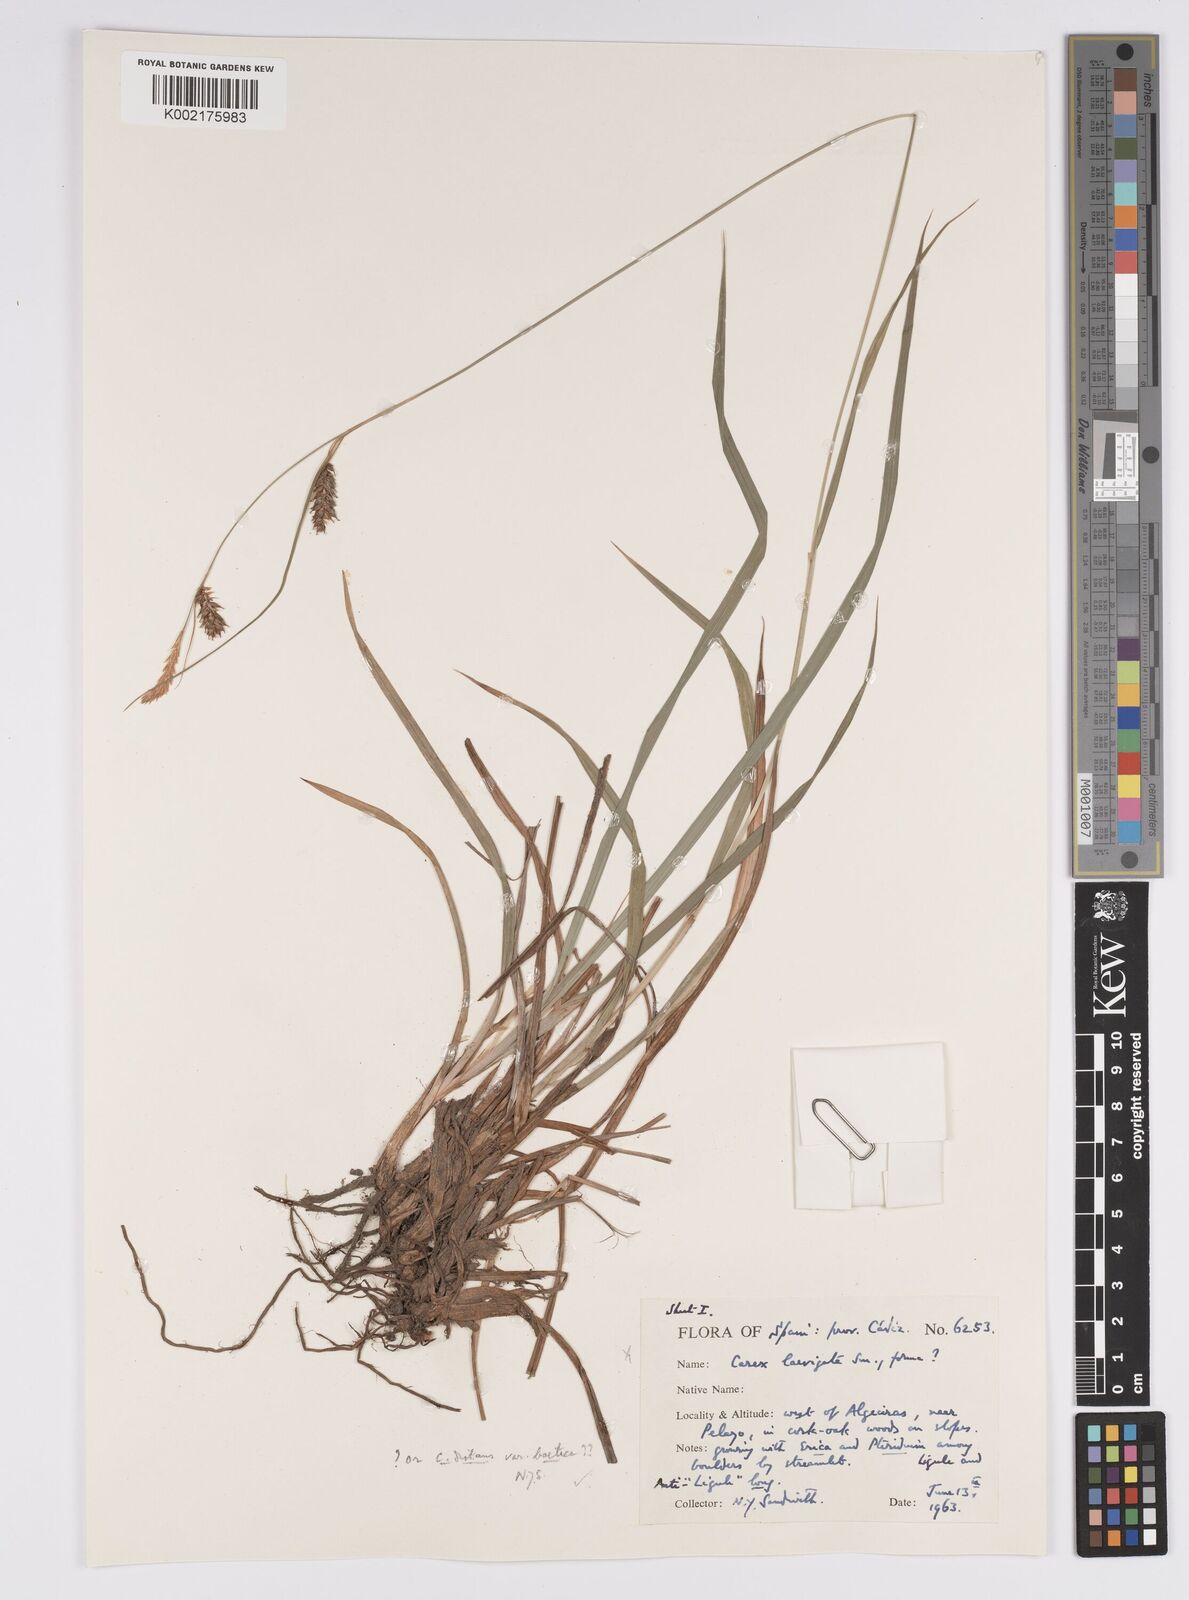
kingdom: Plantae
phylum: Tracheophyta
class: Liliopsida
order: Poales
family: Cyperaceae
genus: Carex
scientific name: Carex laevigata
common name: Smooth-stalked sedge
